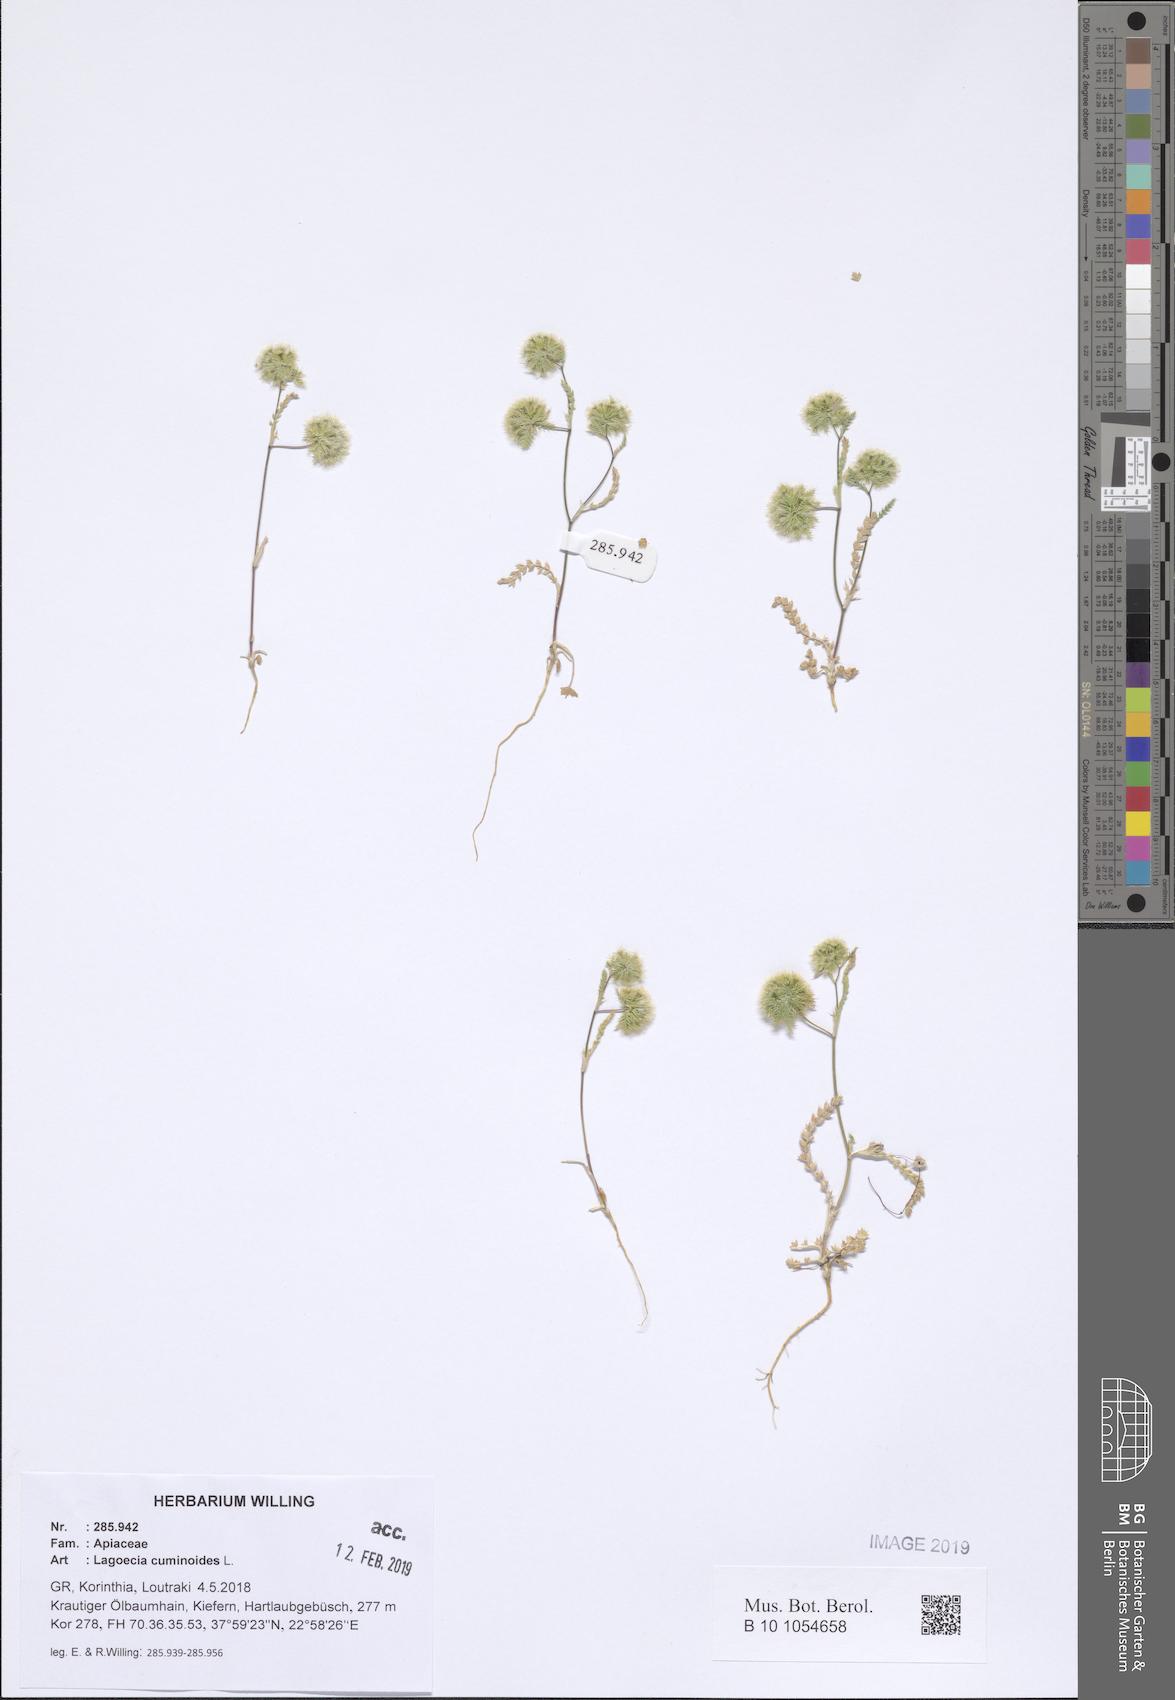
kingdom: Plantae
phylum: Tracheophyta
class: Magnoliopsida
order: Apiales
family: Apiaceae
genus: Lagoecia
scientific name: Lagoecia cuminoides
